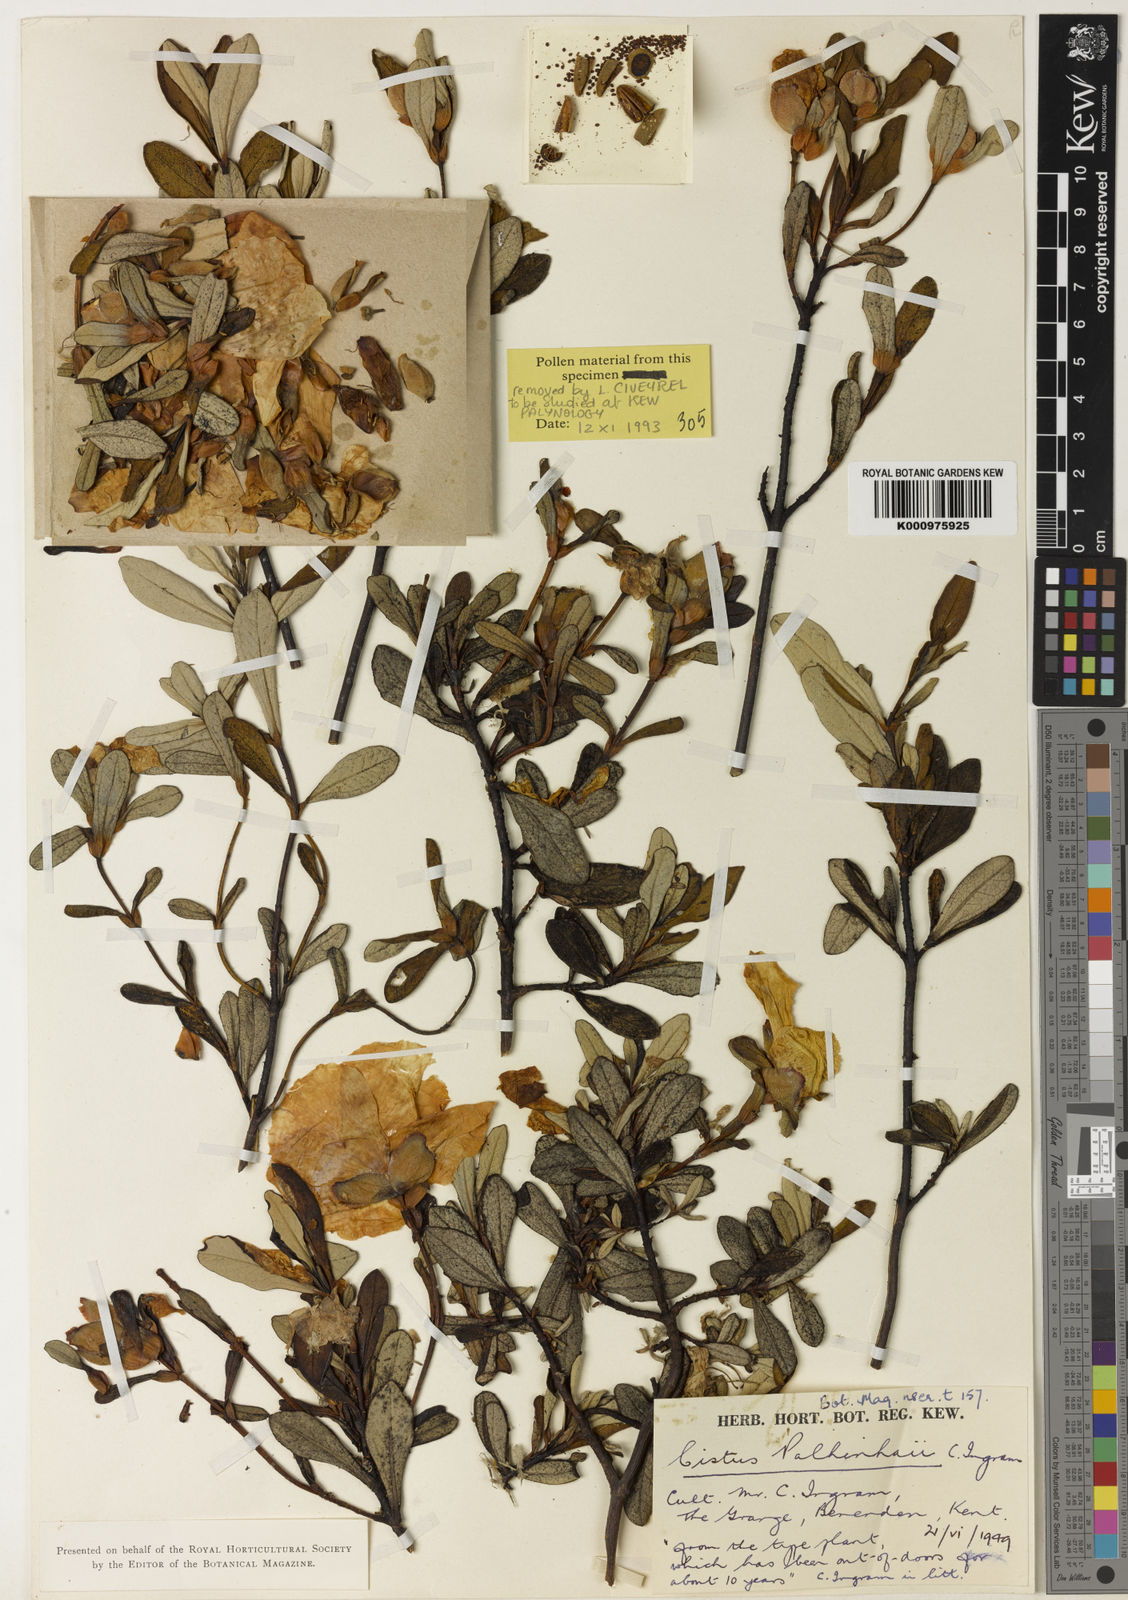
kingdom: Plantae
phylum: Tracheophyta
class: Magnoliopsida
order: Malvales
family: Cistaceae
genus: Cistus
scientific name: Cistus ladanifer
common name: Common gum cistus
